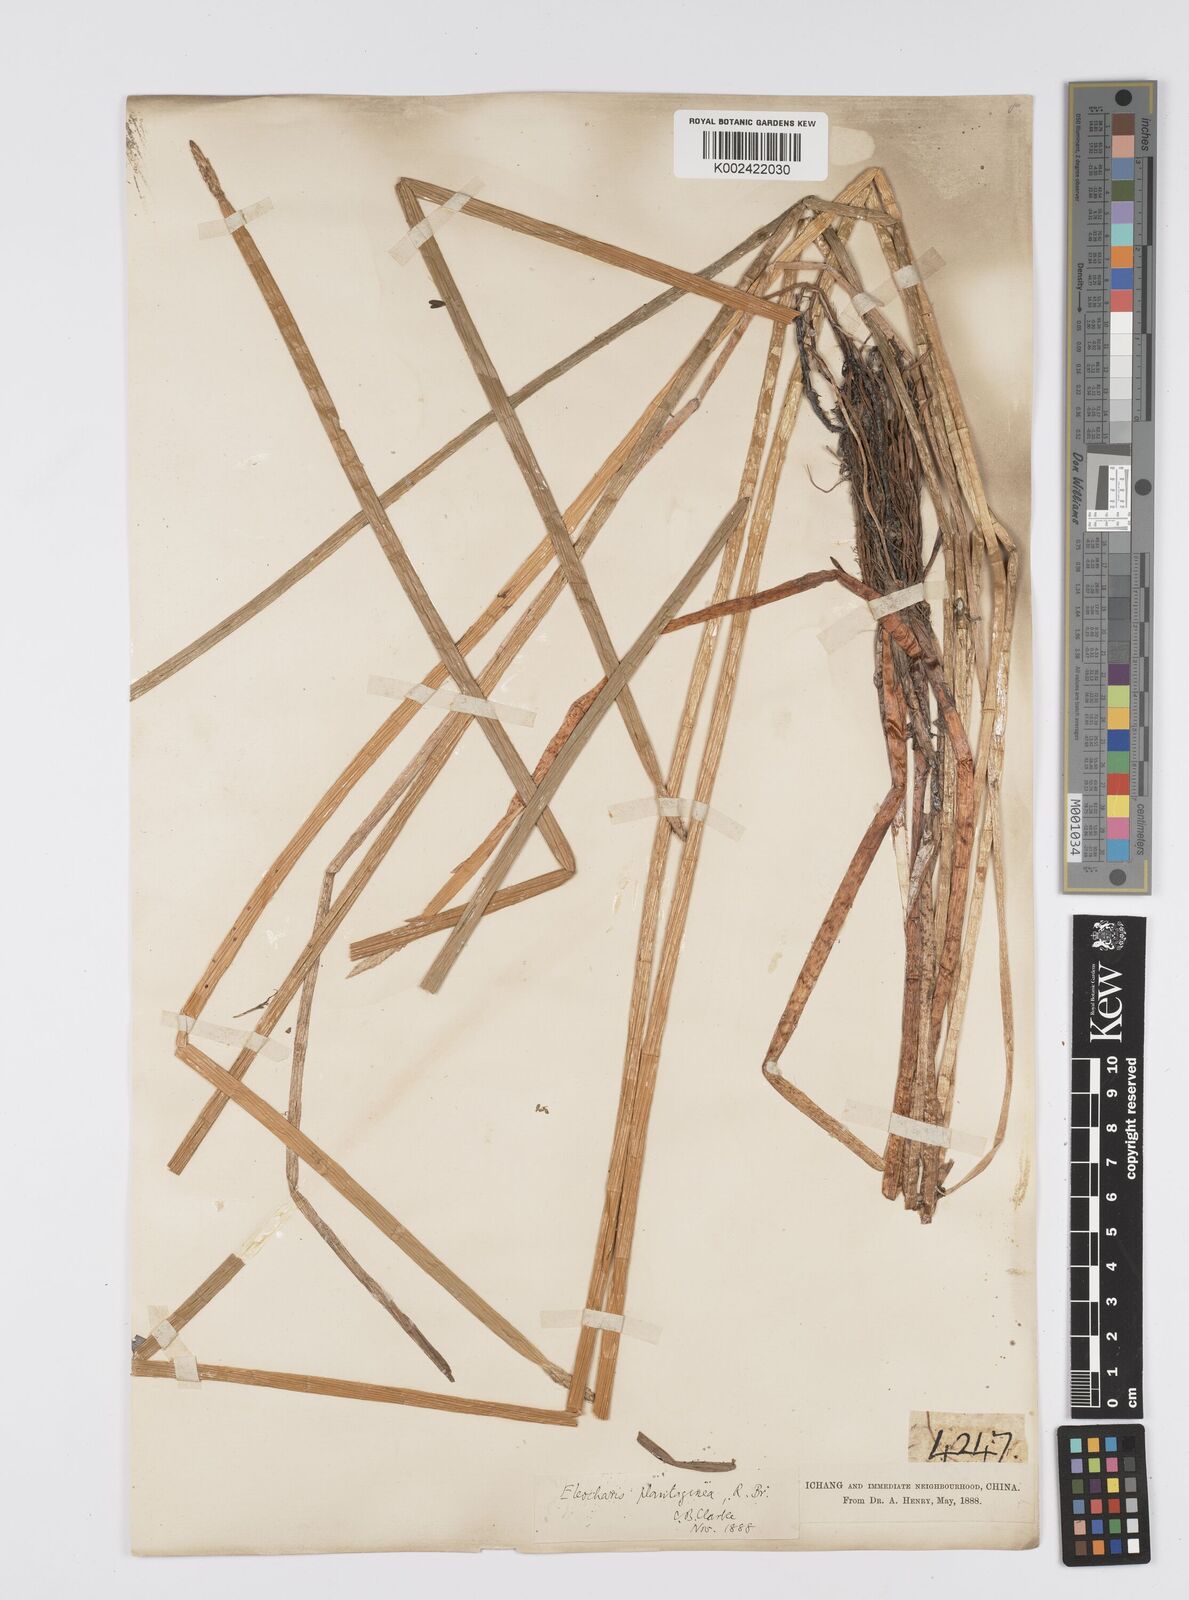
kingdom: Plantae
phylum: Tracheophyta
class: Liliopsida
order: Poales
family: Cyperaceae
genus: Eleocharis
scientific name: Eleocharis dulcis
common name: Chinese water chestnut
